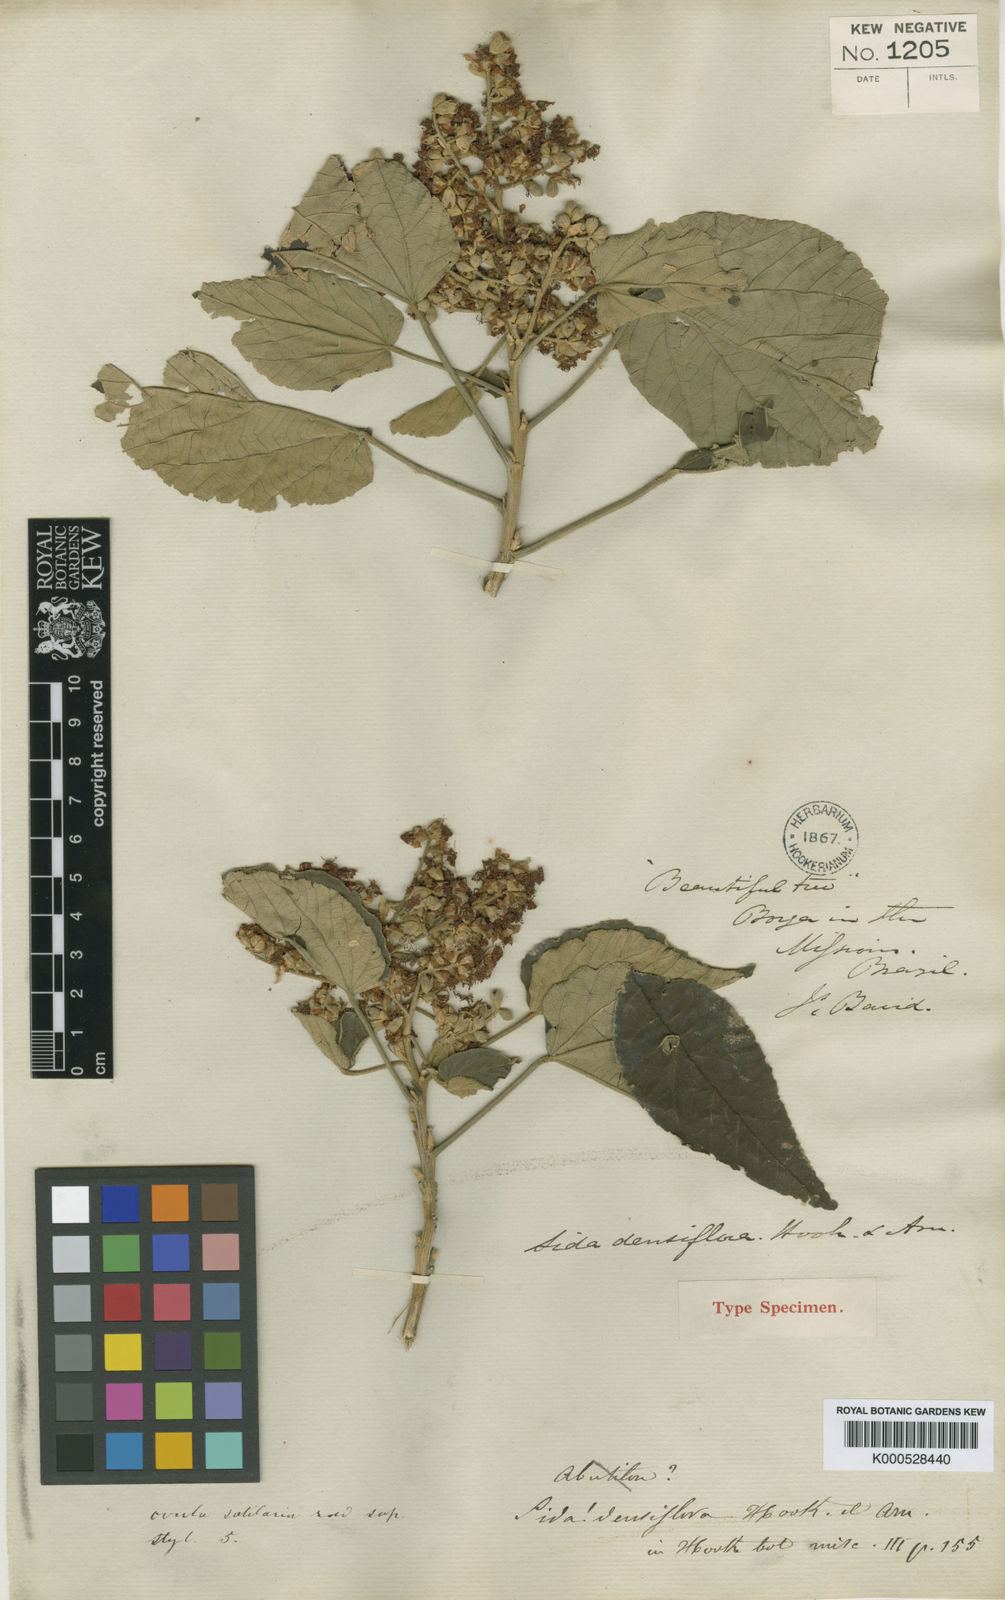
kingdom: Plantae
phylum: Tracheophyta
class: Magnoliopsida
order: Malvales
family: Malvaceae
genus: Bastardiopsis
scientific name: Bastardiopsis densiflora
